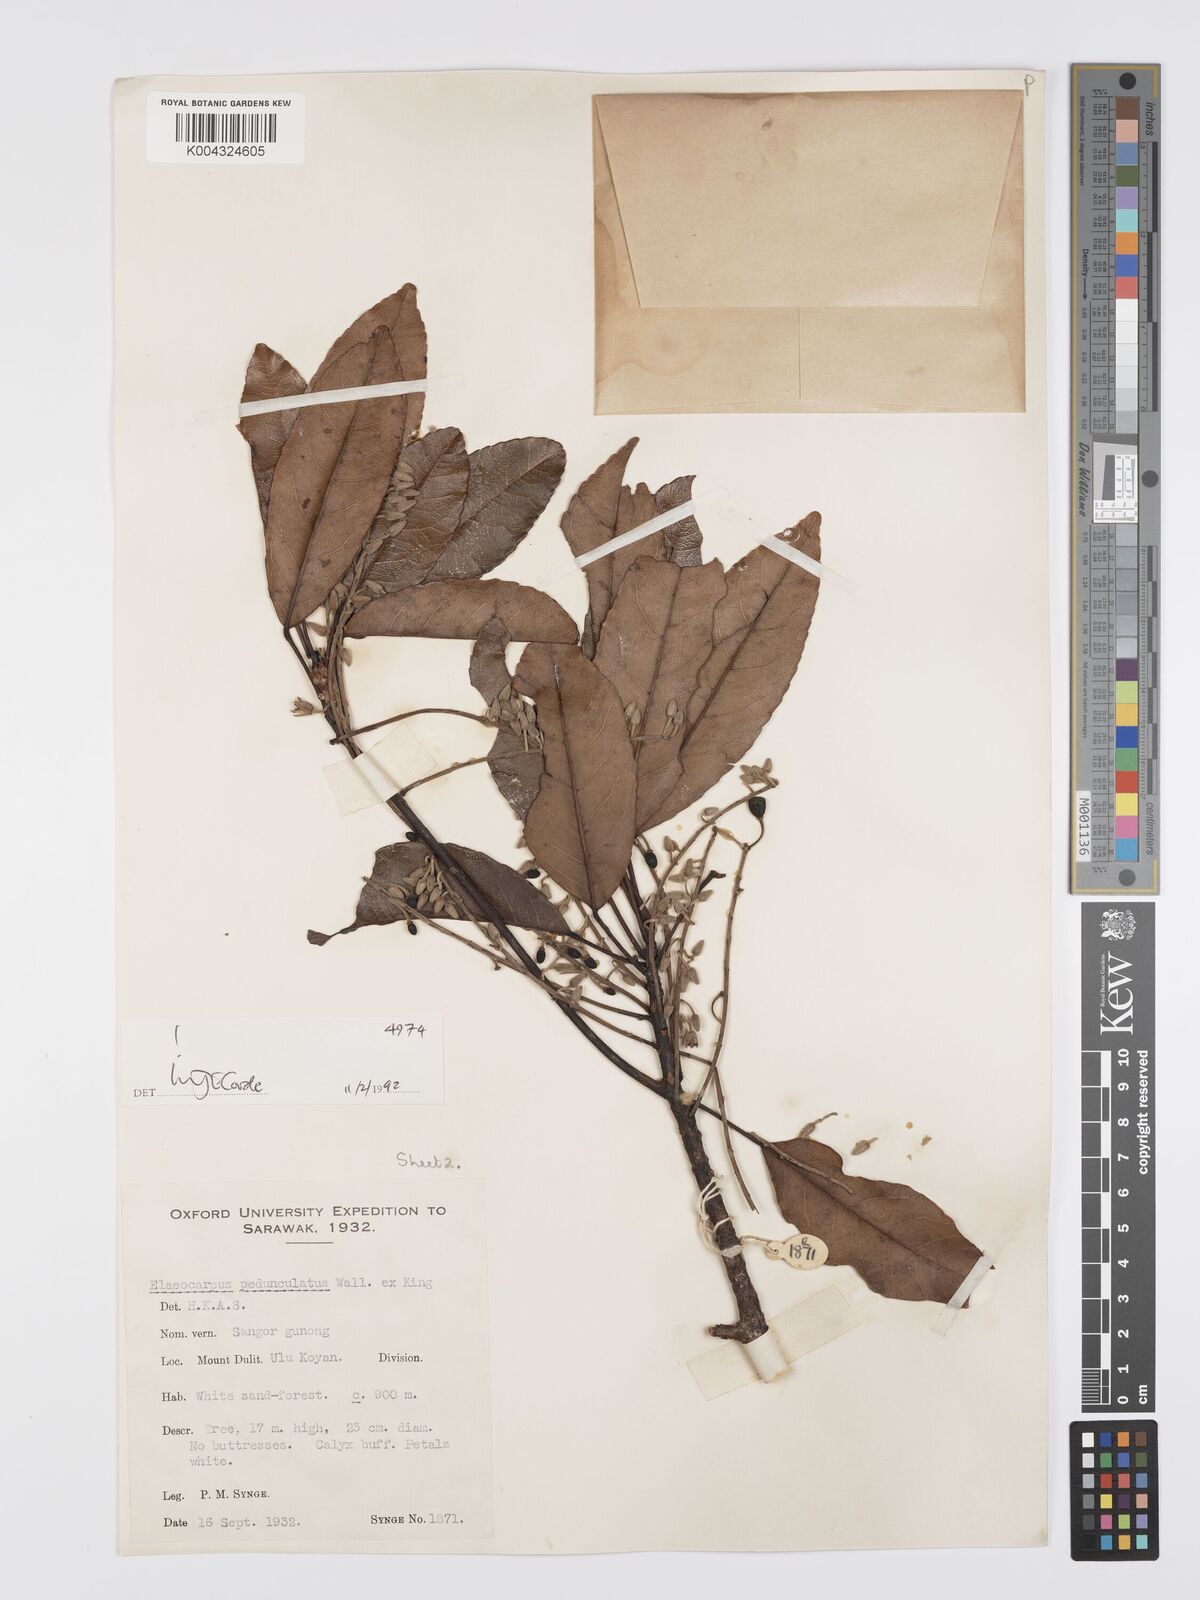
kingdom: Plantae
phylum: Tracheophyta
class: Magnoliopsida
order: Oxalidales
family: Elaeocarpaceae
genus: Elaeocarpus
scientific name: Elaeocarpus pedunculatus
